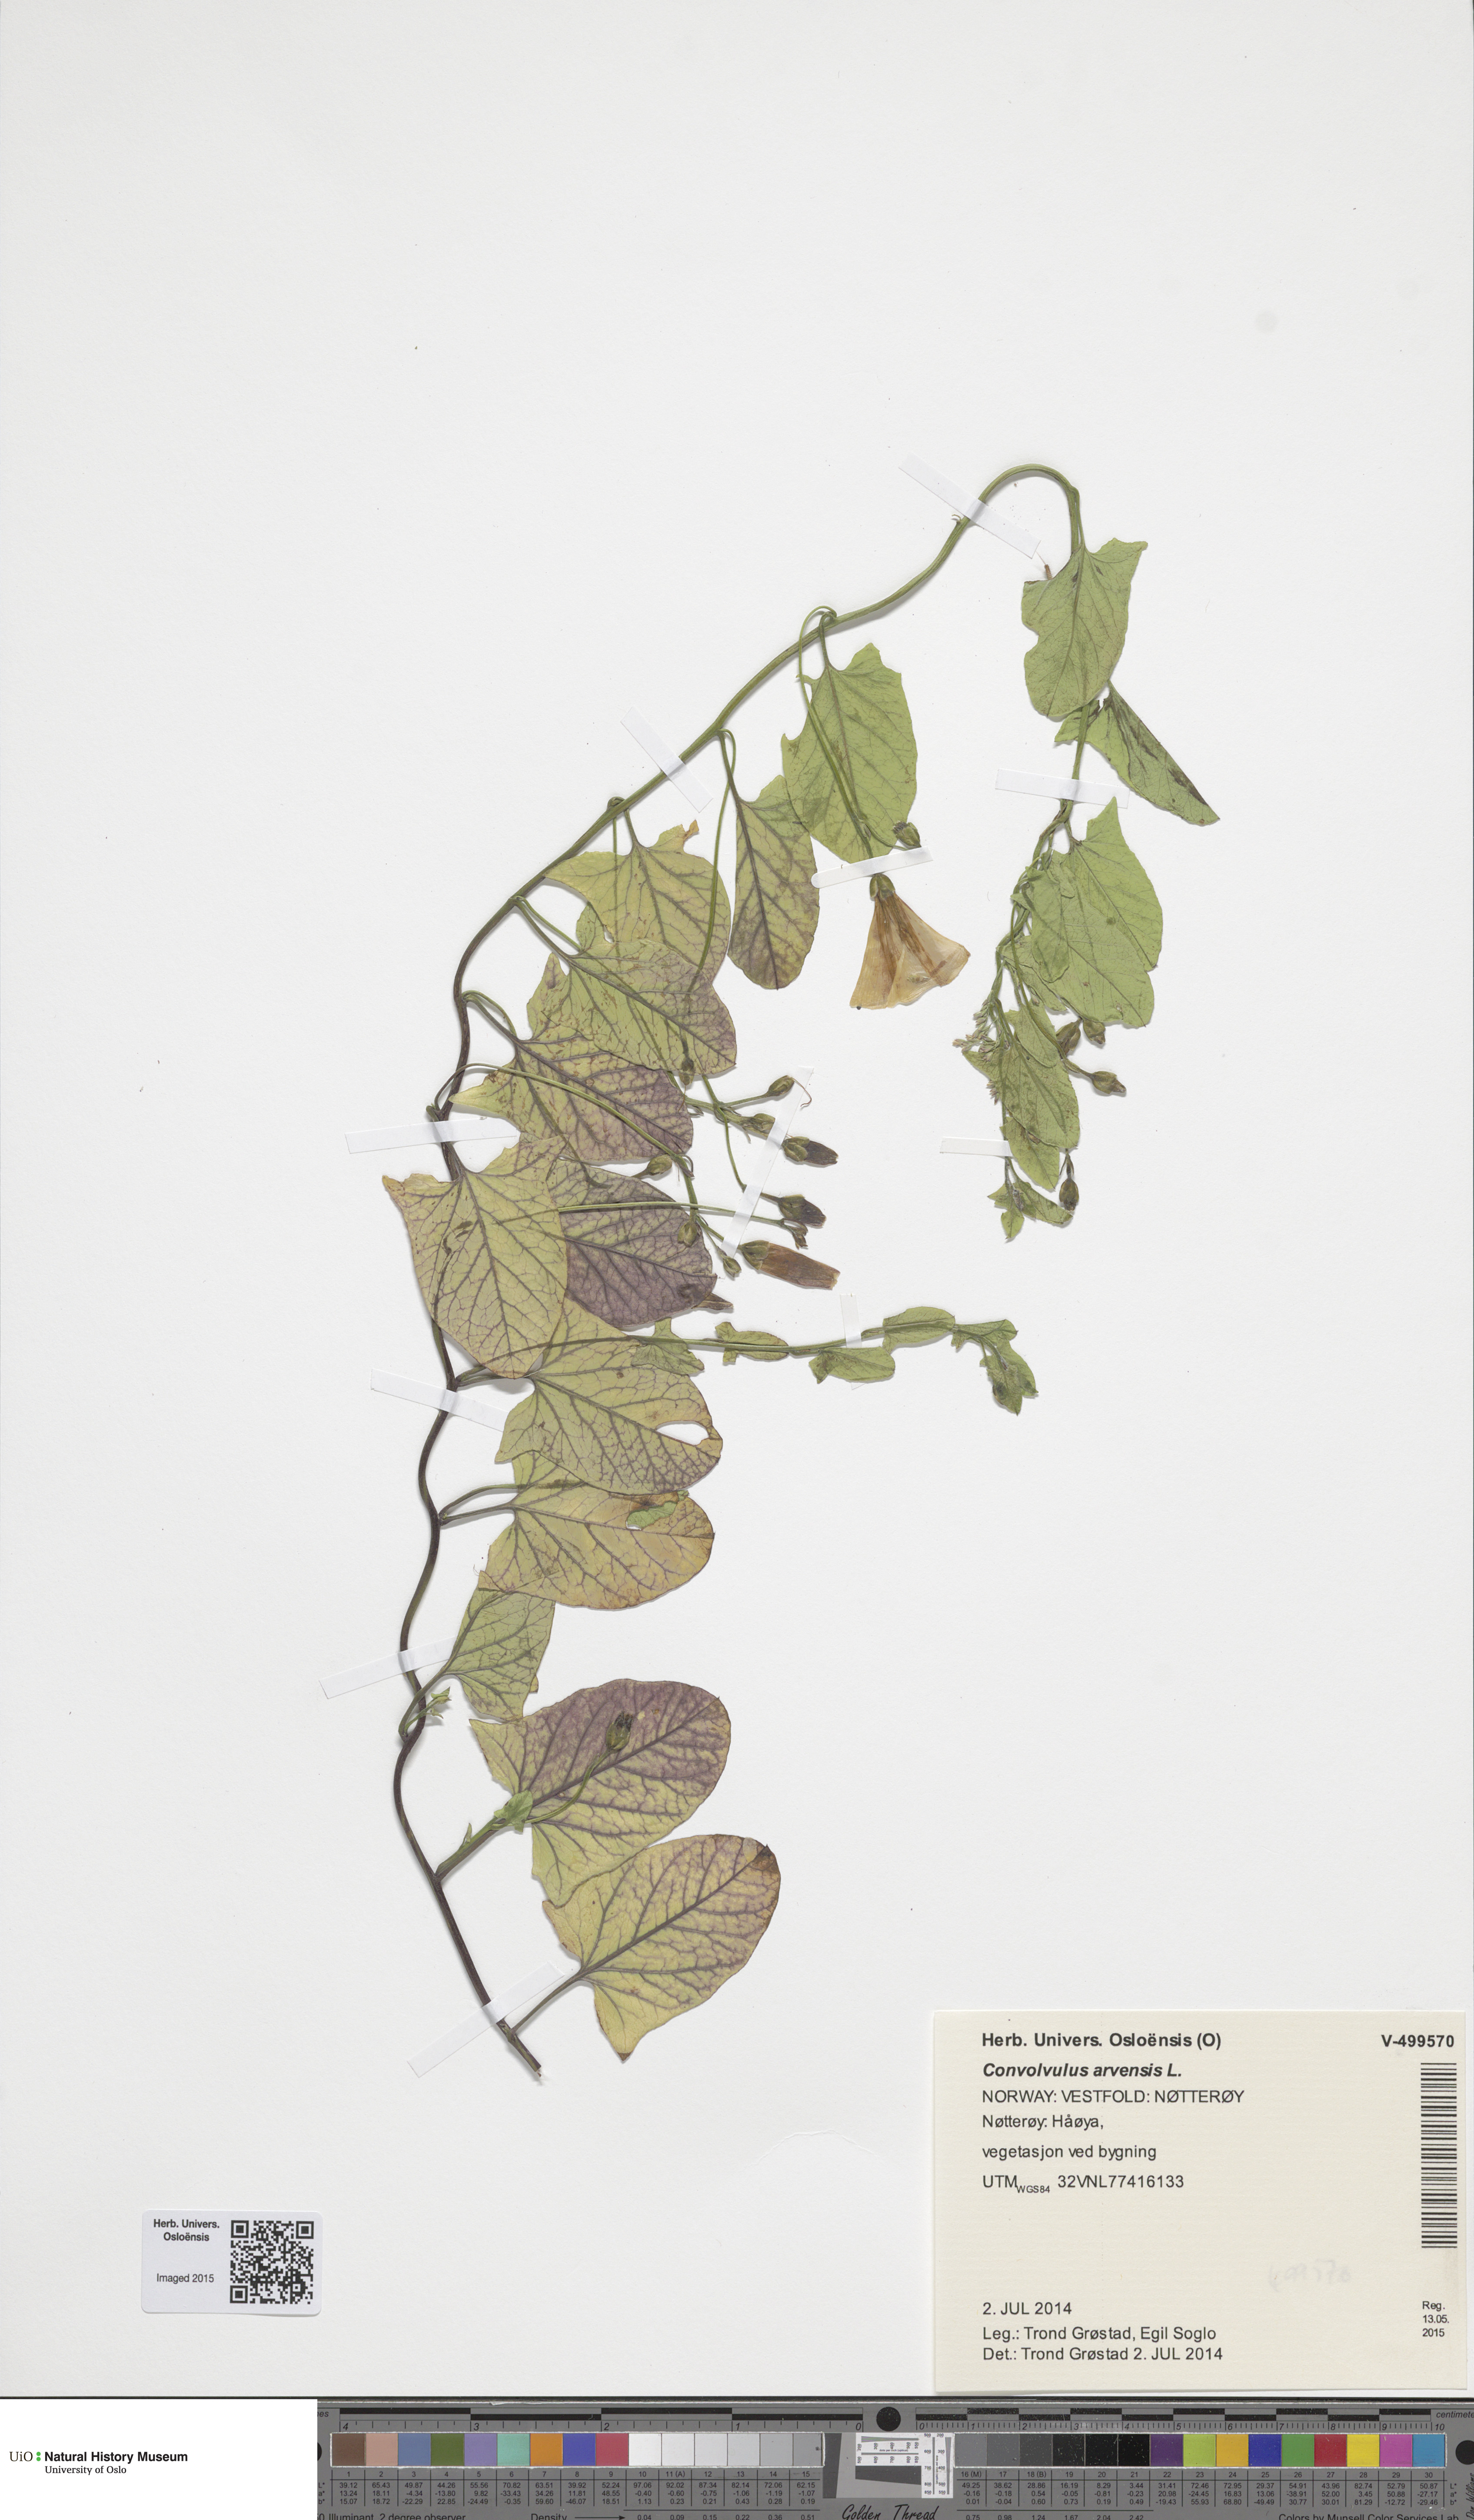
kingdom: Plantae
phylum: Tracheophyta
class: Magnoliopsida
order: Solanales
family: Convolvulaceae
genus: Convolvulus
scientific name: Convolvulus arvensis
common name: Field bindweed
